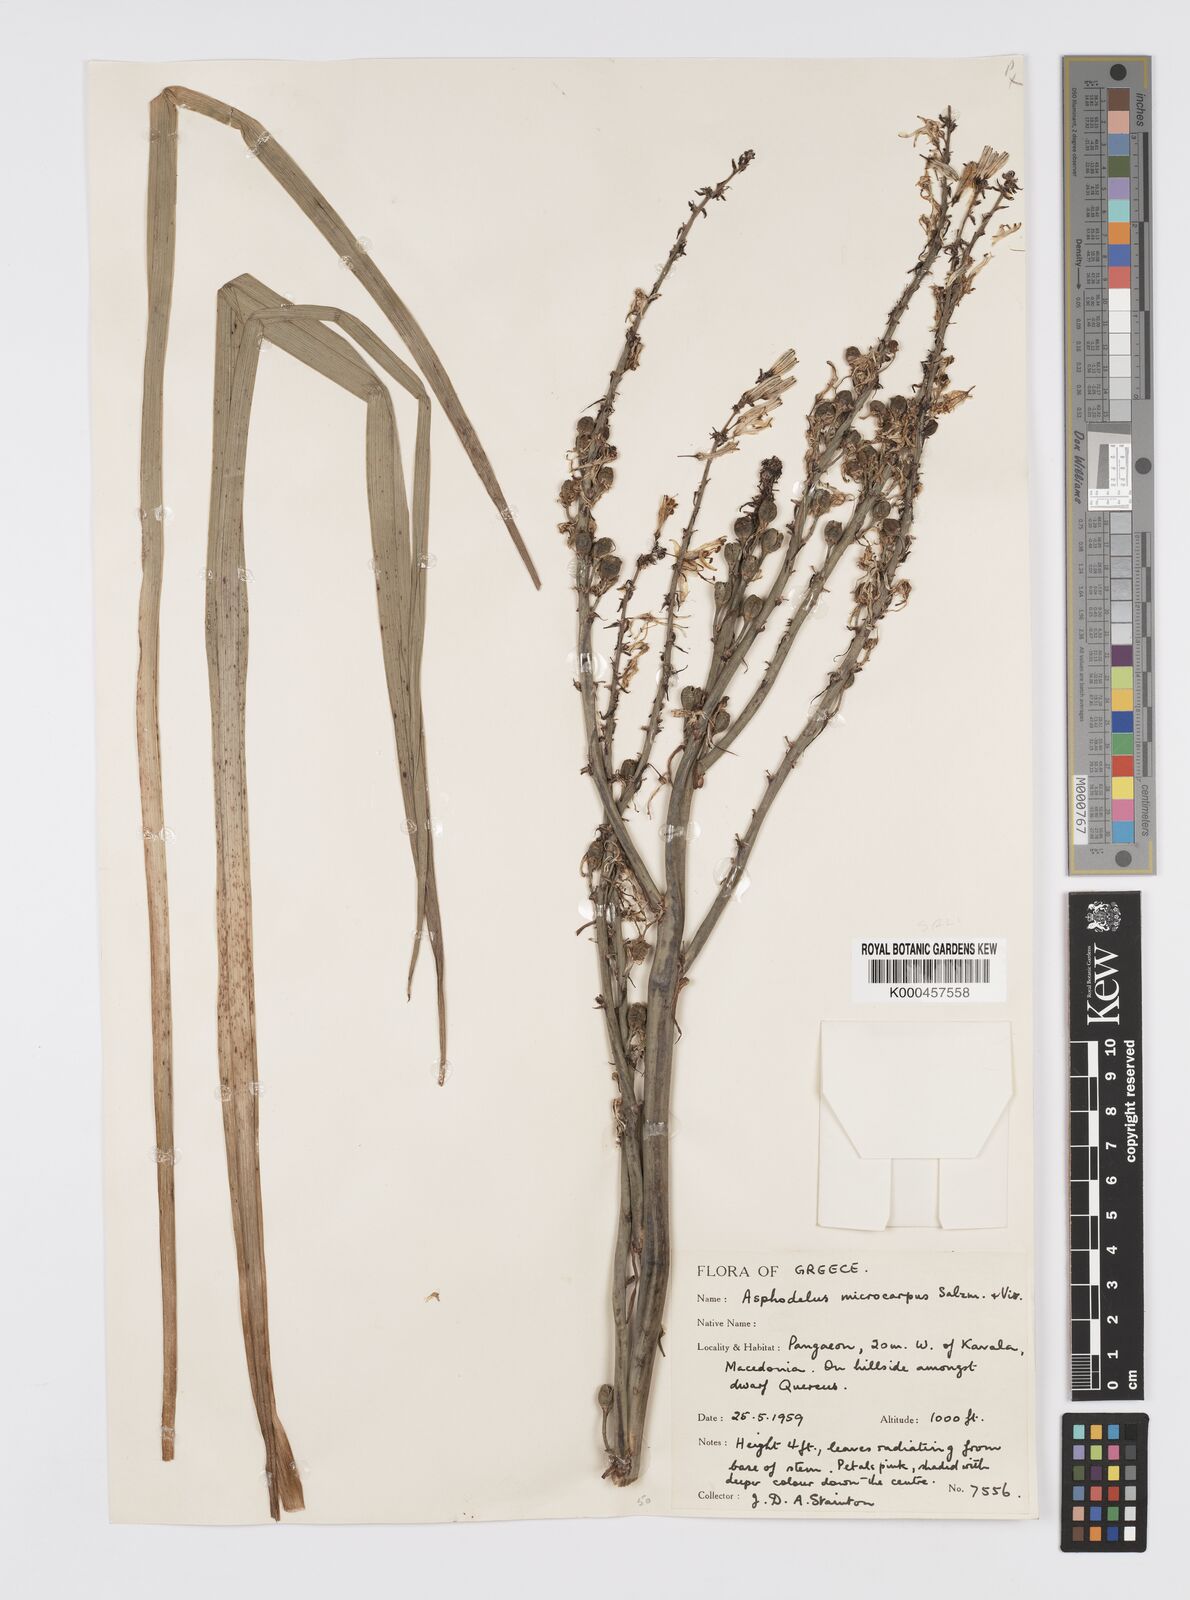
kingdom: Plantae
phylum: Tracheophyta
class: Liliopsida
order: Asparagales
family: Asphodelaceae
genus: Asphodelus
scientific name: Asphodelus aestivus
